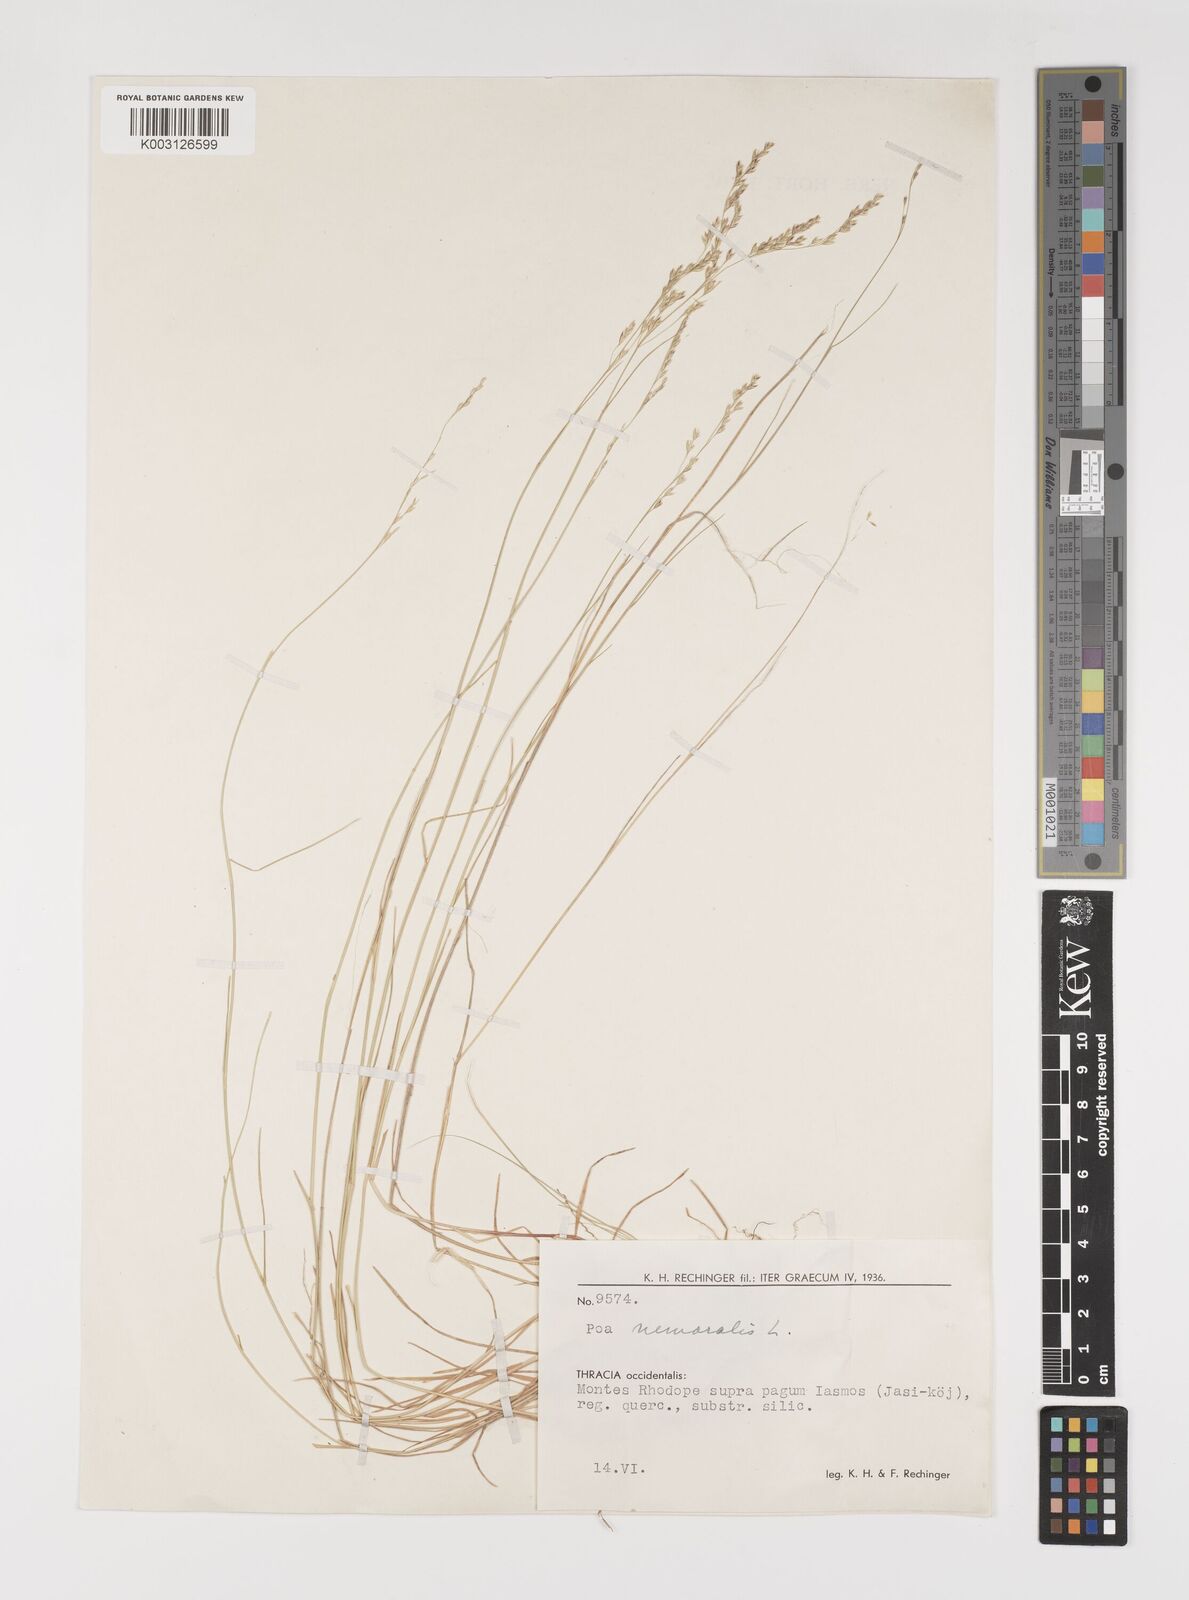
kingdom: Plantae
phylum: Tracheophyta
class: Liliopsida
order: Poales
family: Poaceae
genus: Poa
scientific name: Poa nemoralis
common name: Wood bluegrass
